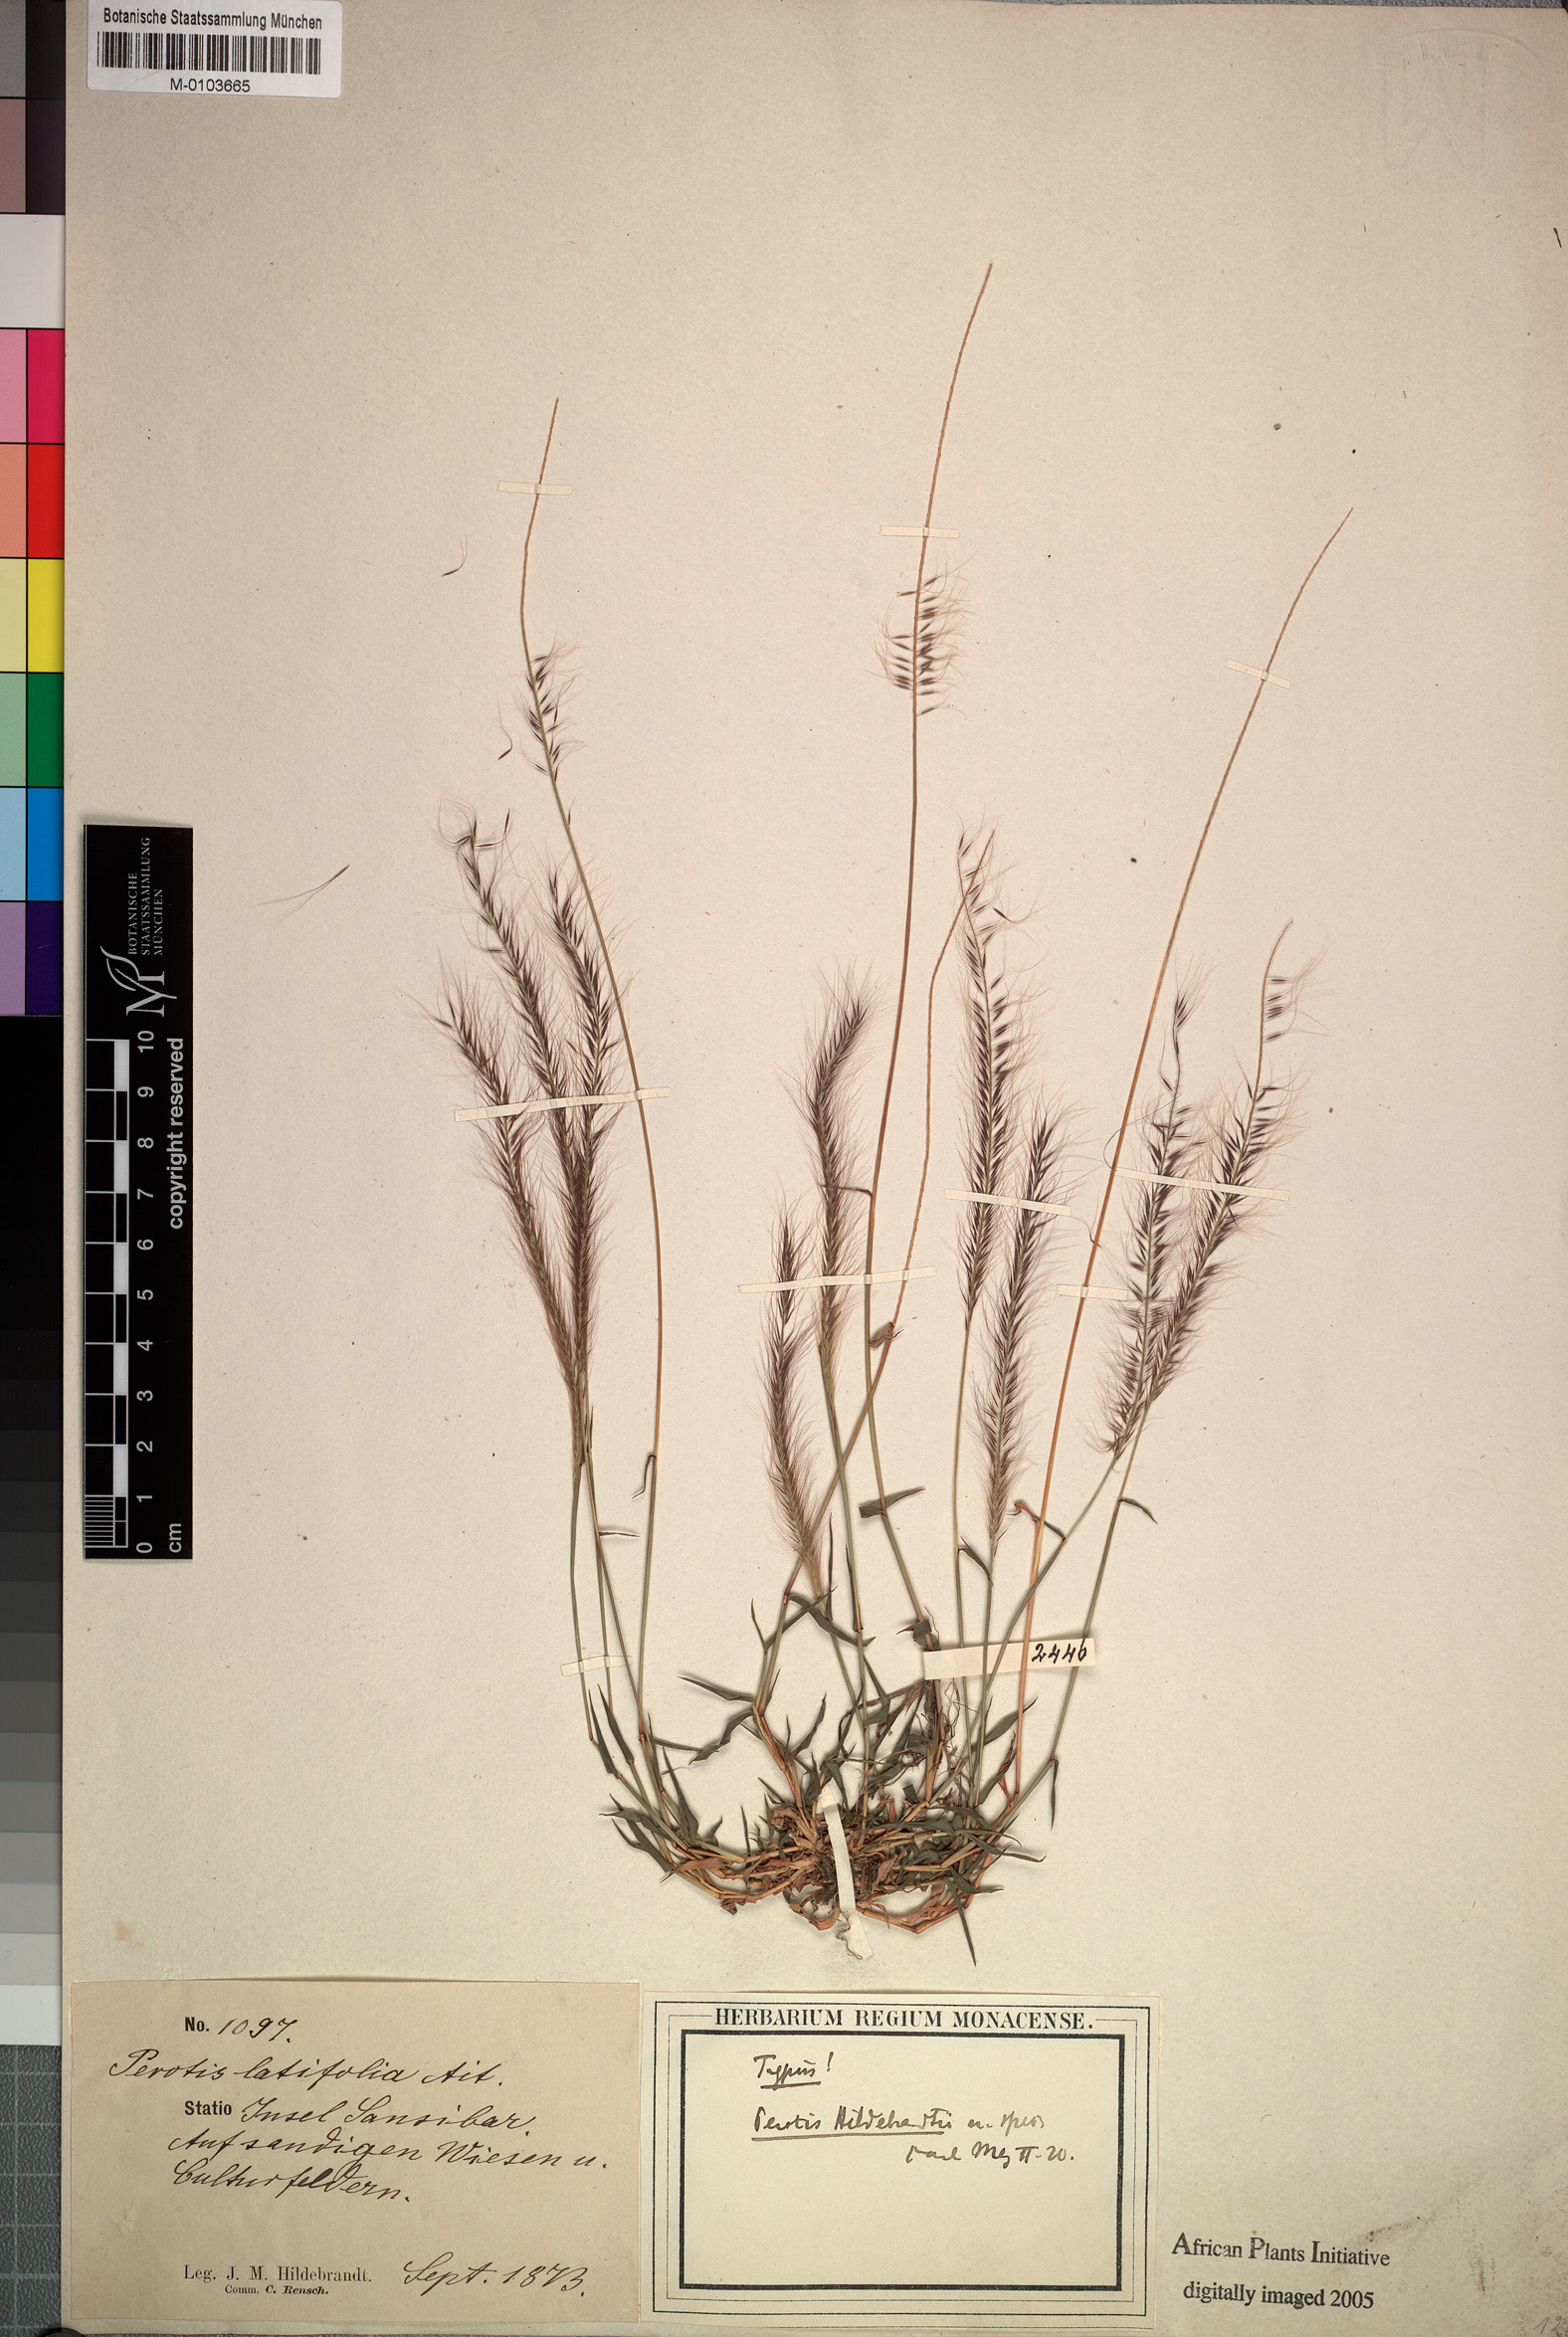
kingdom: Plantae
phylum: Tracheophyta
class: Liliopsida
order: Poales
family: Poaceae
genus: Perotis
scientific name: Perotis hildebrandtii
